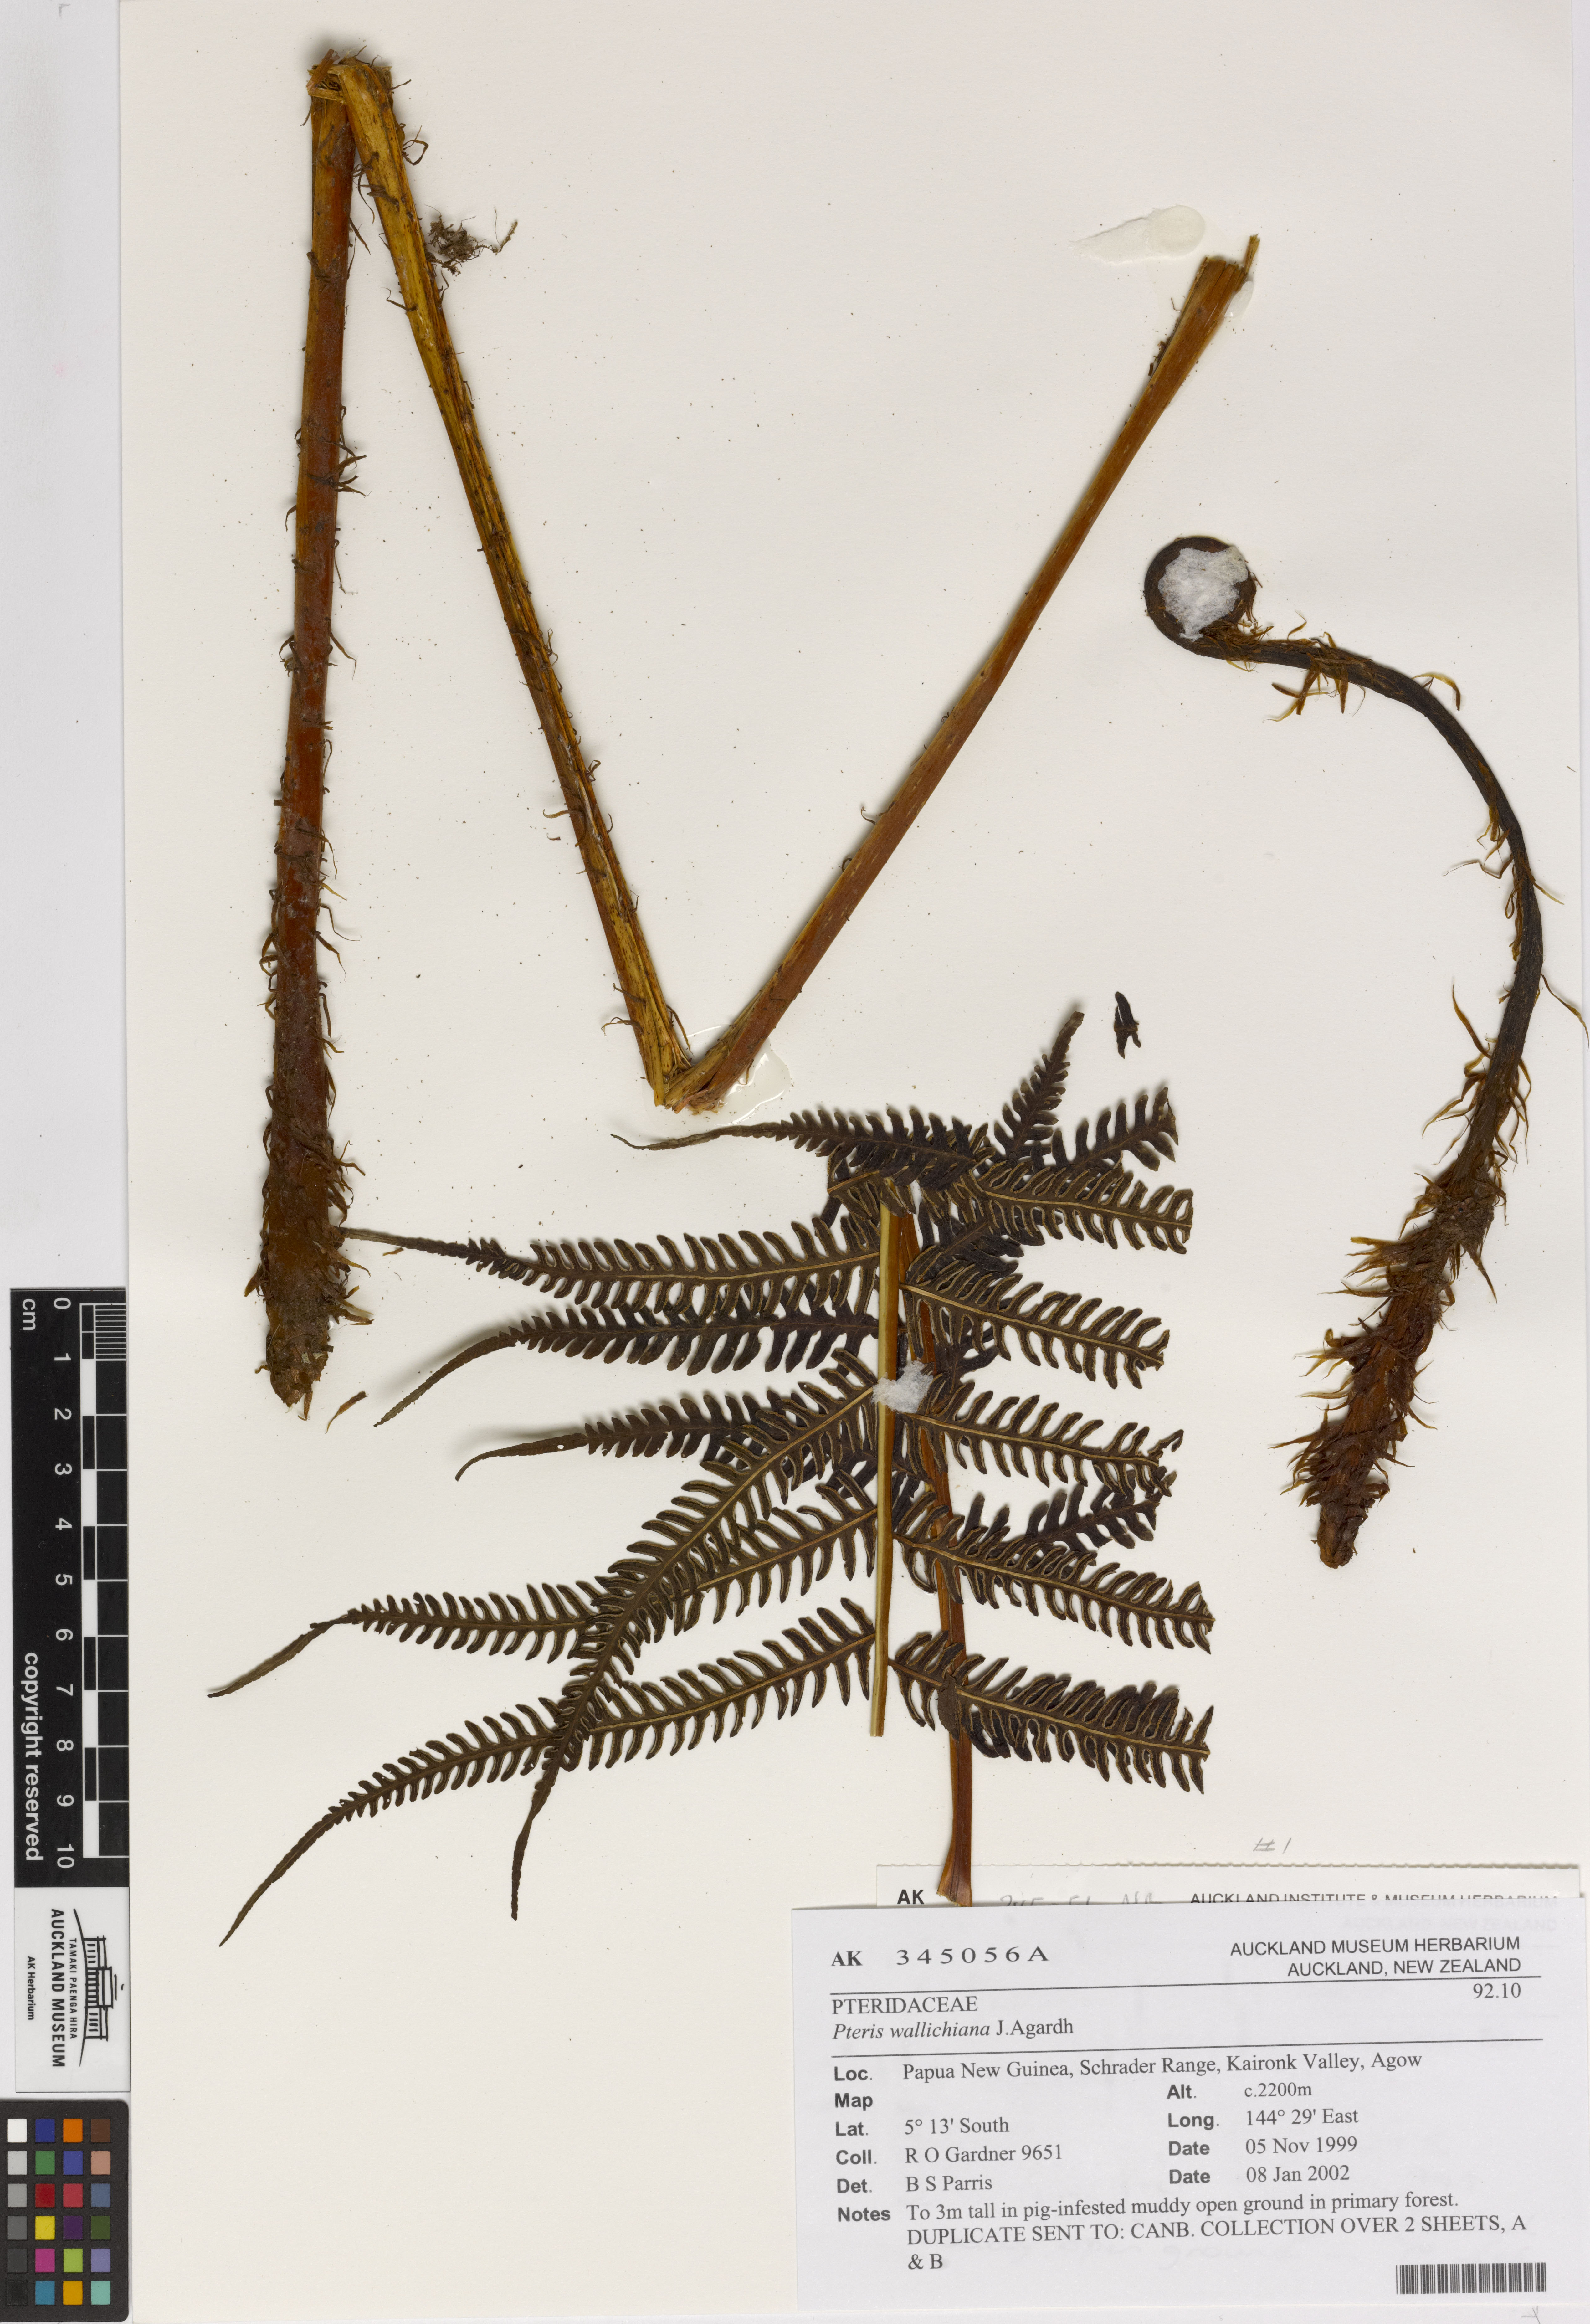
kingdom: Plantae
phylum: Tracheophyta
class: Polypodiopsida
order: Polypodiales
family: Pteridaceae
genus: Pteris
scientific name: Pteris wallichiana
